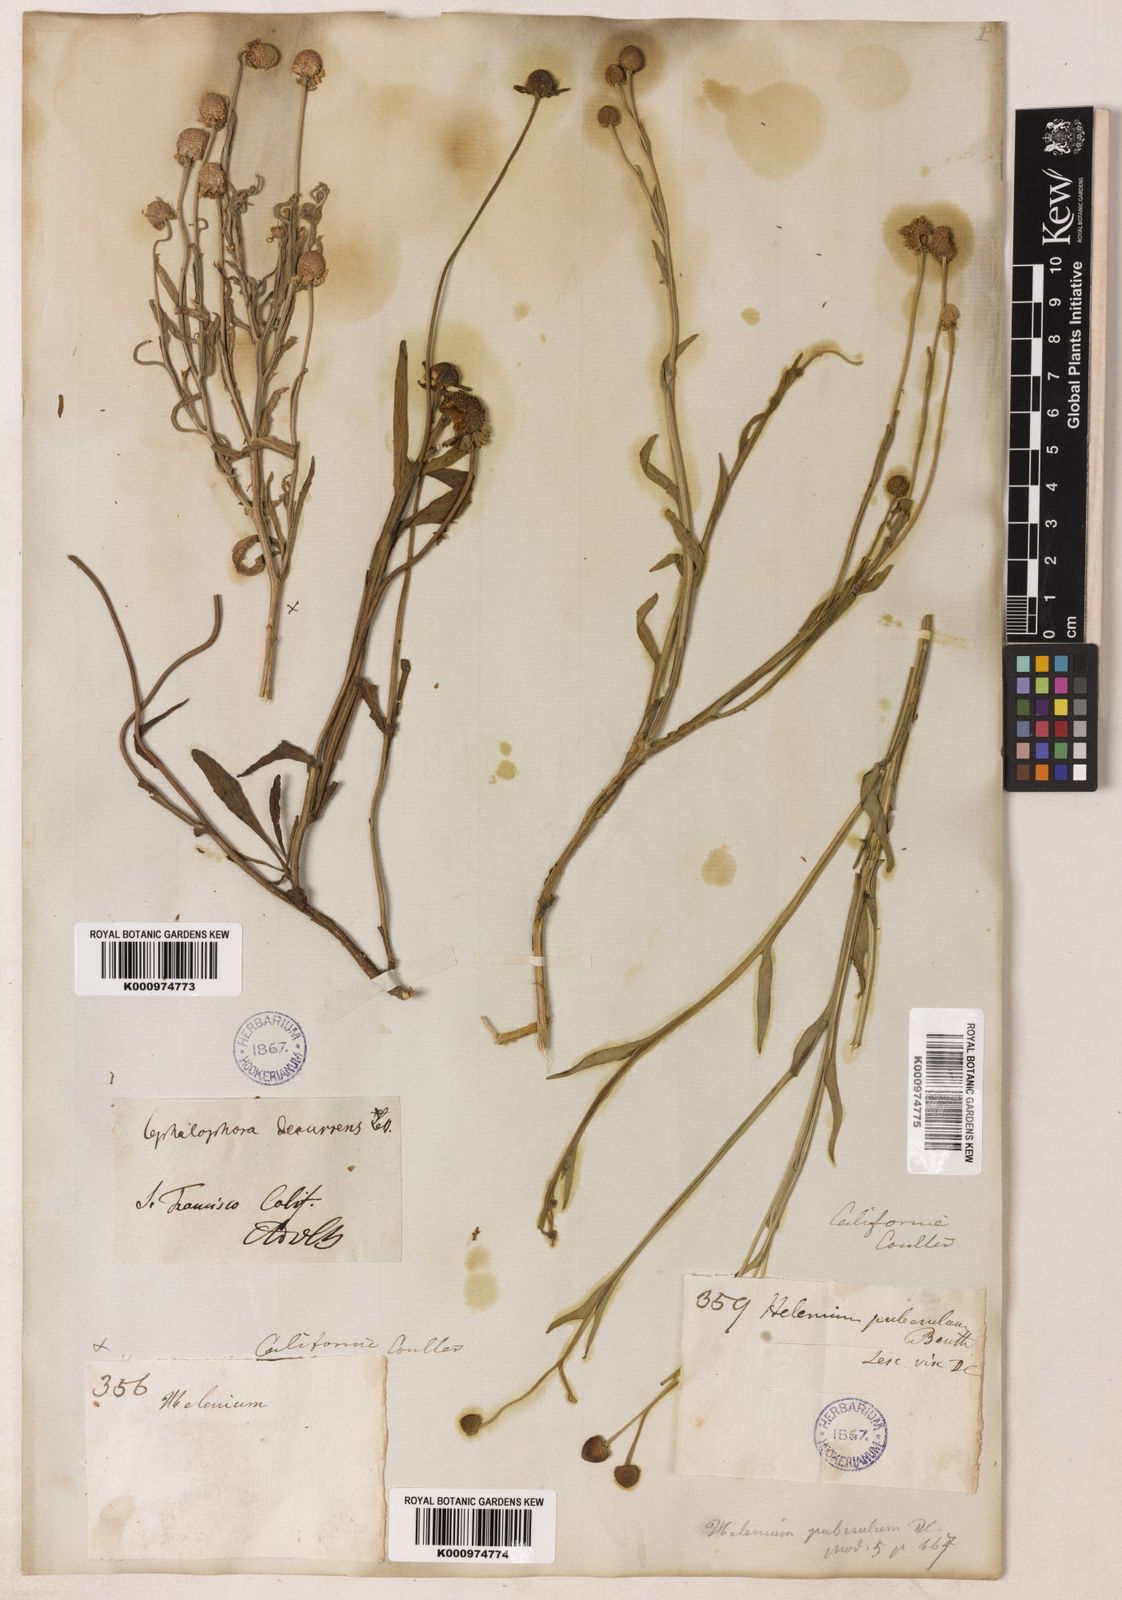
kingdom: Plantae
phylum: Tracheophyta
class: Magnoliopsida
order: Asterales
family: Asteraceae
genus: Helenium
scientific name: Helenium puberulum
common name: Sneezewort
